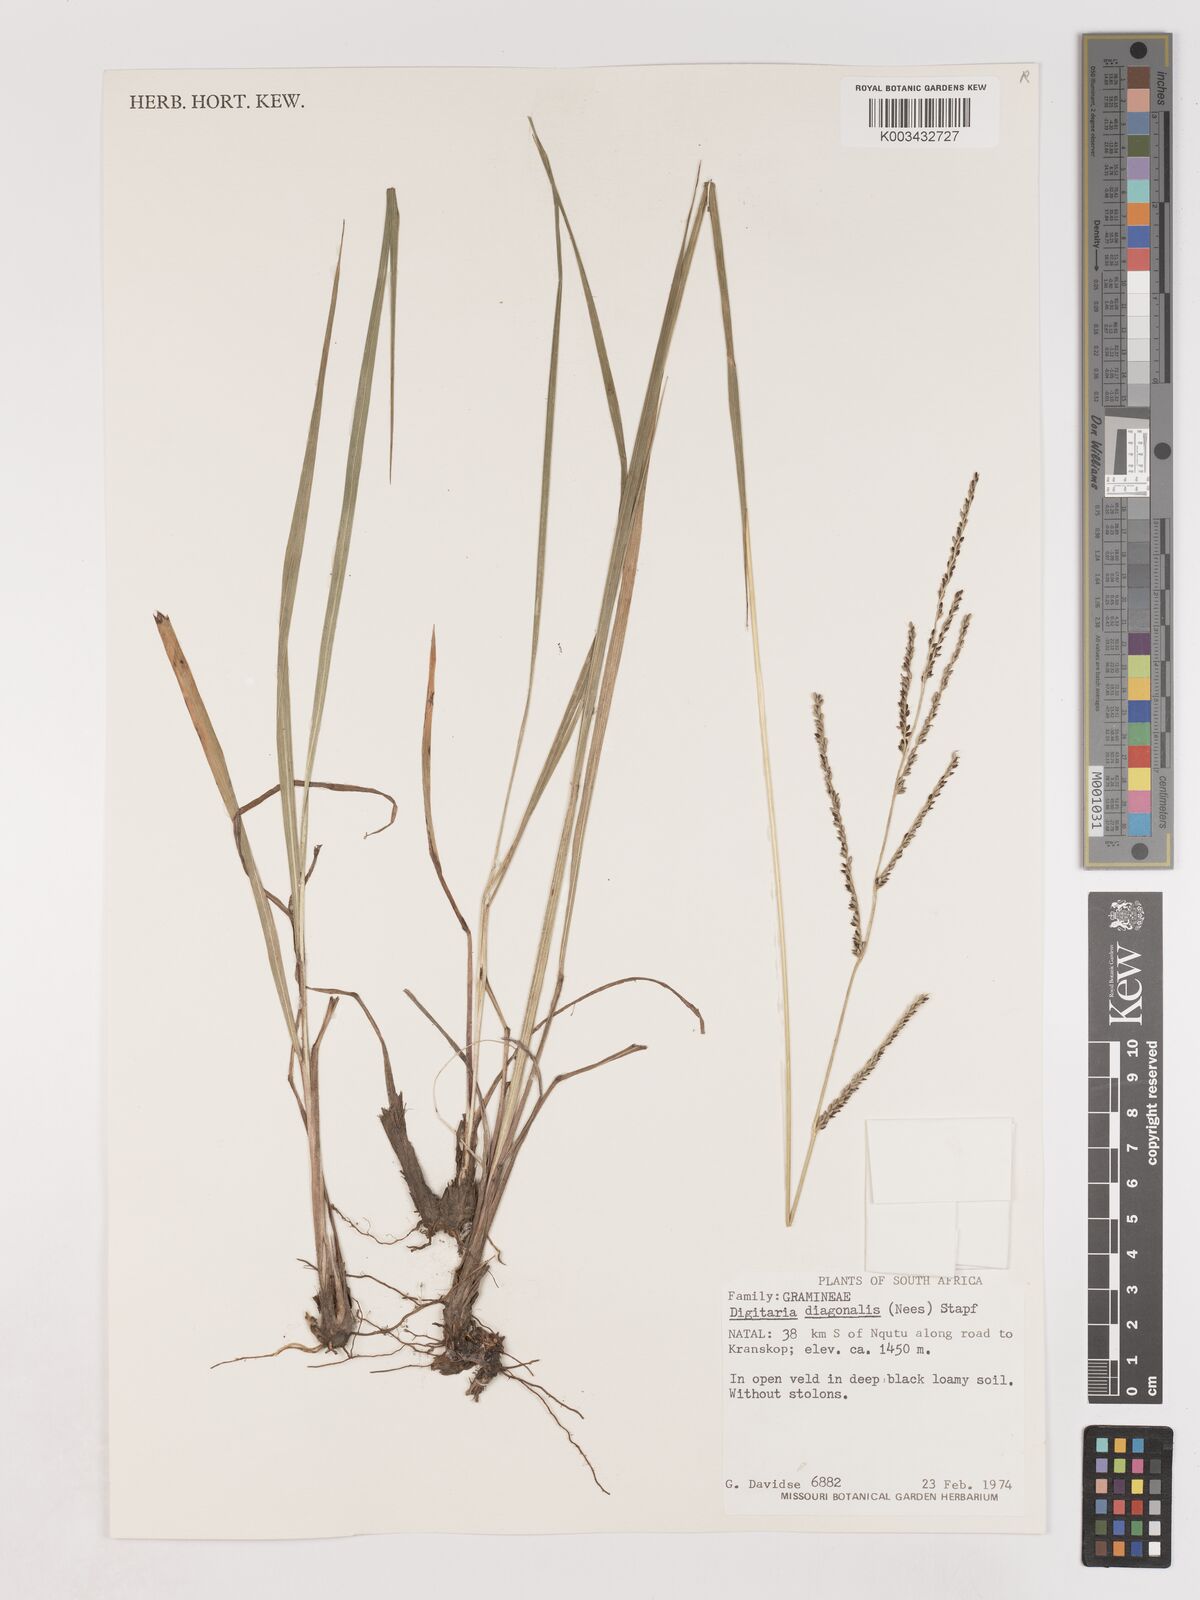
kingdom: Plantae
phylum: Tracheophyta
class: Liliopsida
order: Poales
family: Poaceae
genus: Digitaria
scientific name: Digitaria diagonalis
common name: Brown-seed finger grass
